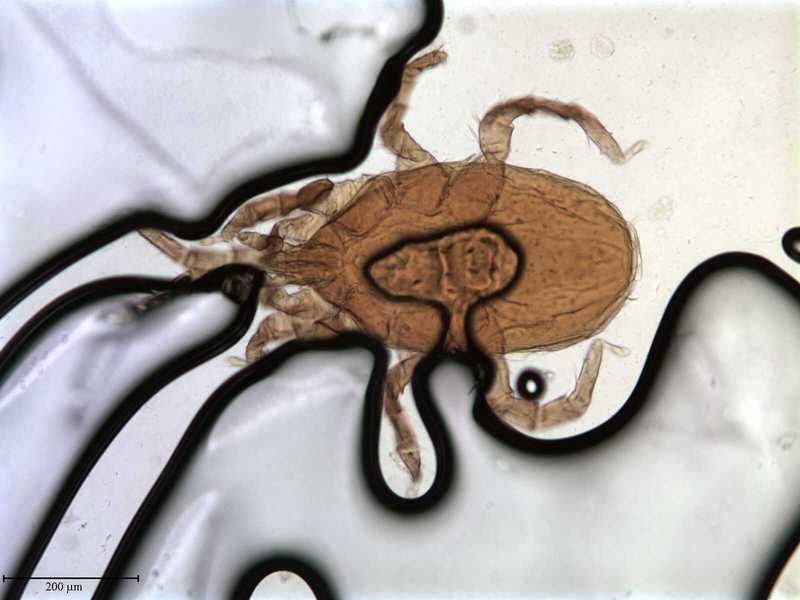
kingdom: Animalia
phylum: Arthropoda
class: Arachnida
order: Mesostigmata
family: Macronyssidae
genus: Chiroptonyssus
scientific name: Chiroptonyssus venezolanus
